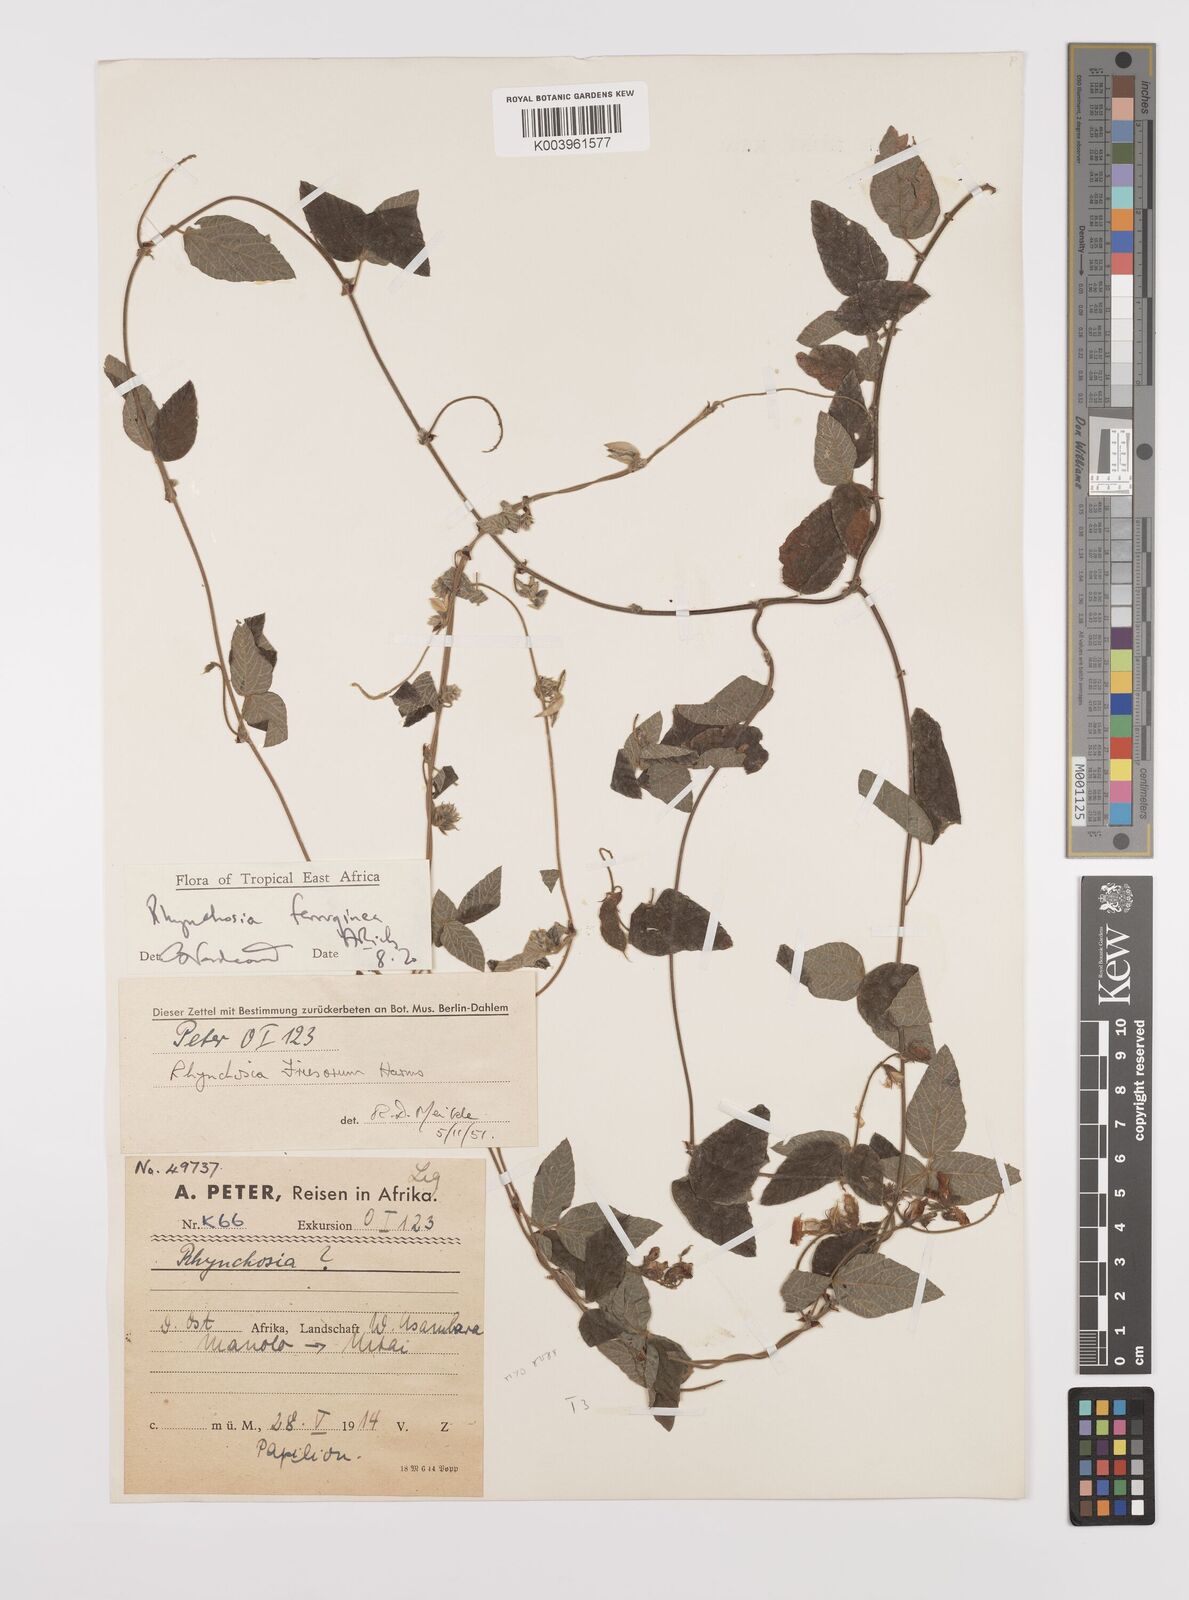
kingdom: Plantae
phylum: Tracheophyta
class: Magnoliopsida
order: Fabales
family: Fabaceae
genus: Rhynchosia
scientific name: Rhynchosia ferruginea
